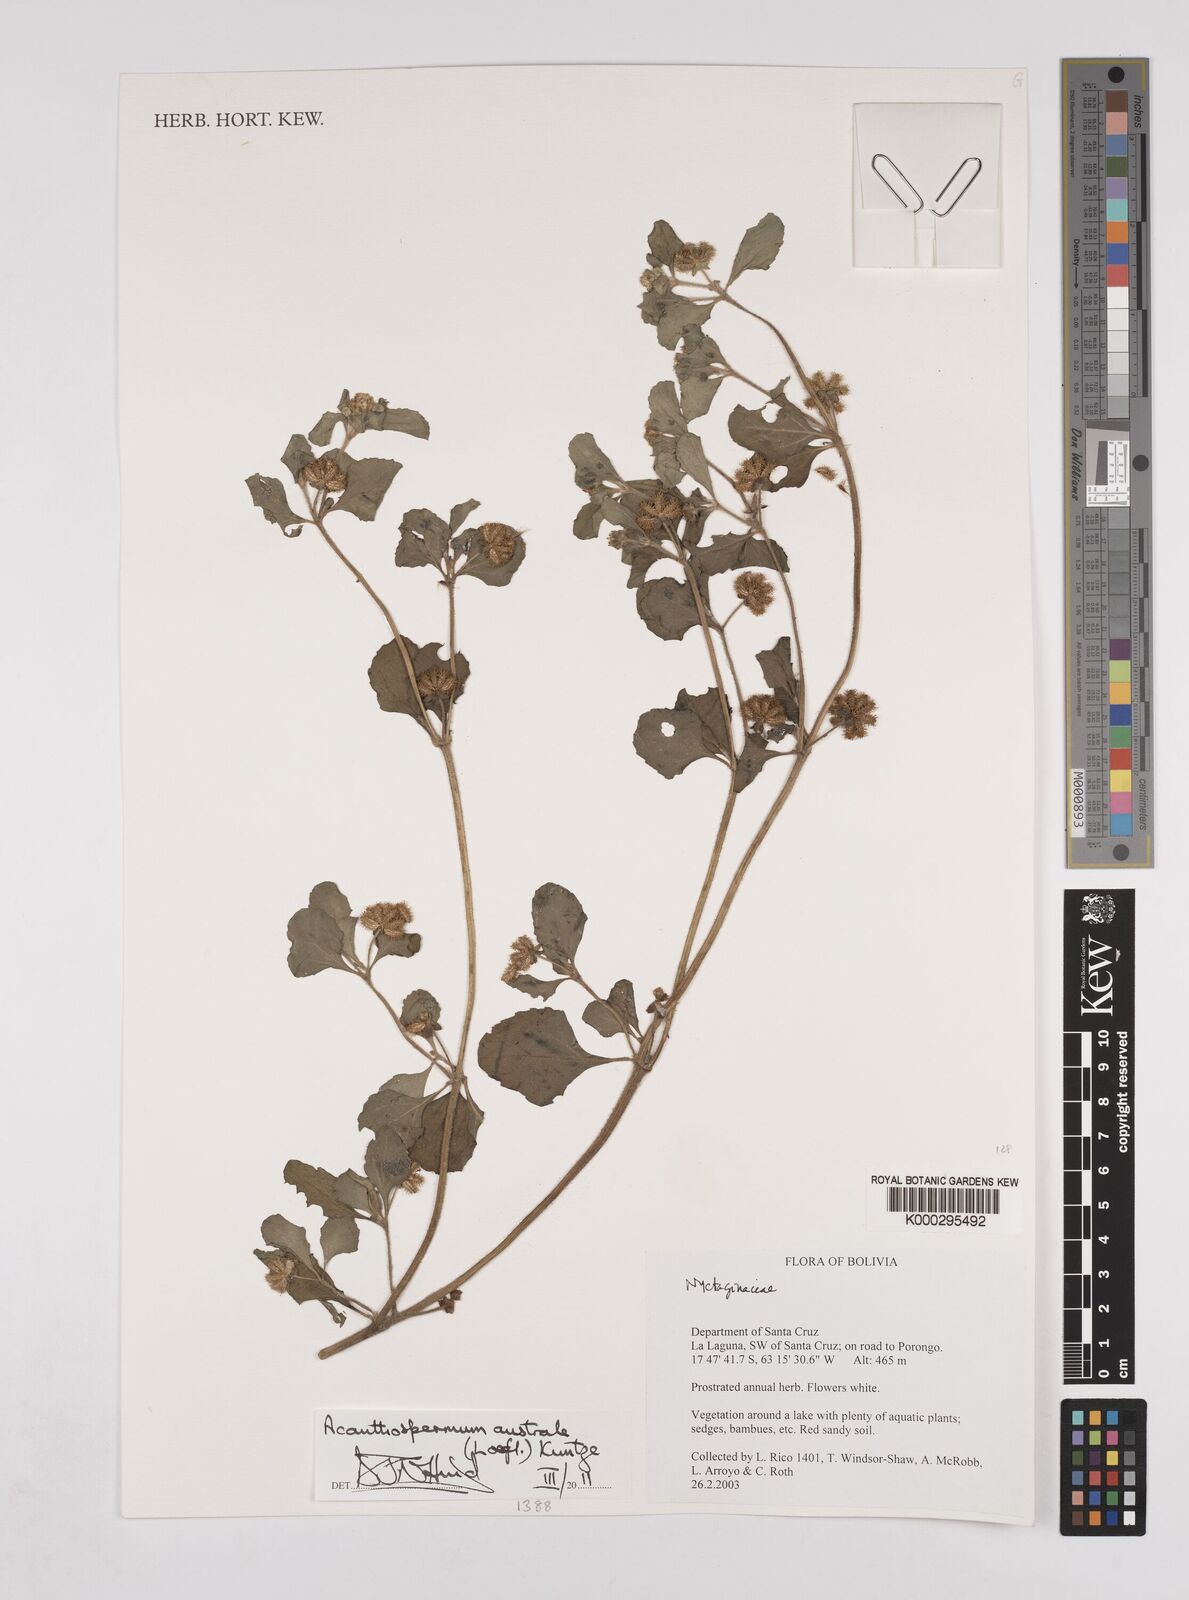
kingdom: Plantae
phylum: Tracheophyta
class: Magnoliopsida
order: Asterales
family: Asteraceae
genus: Acanthospermum
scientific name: Acanthospermum australe
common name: Paraguayan starbur
